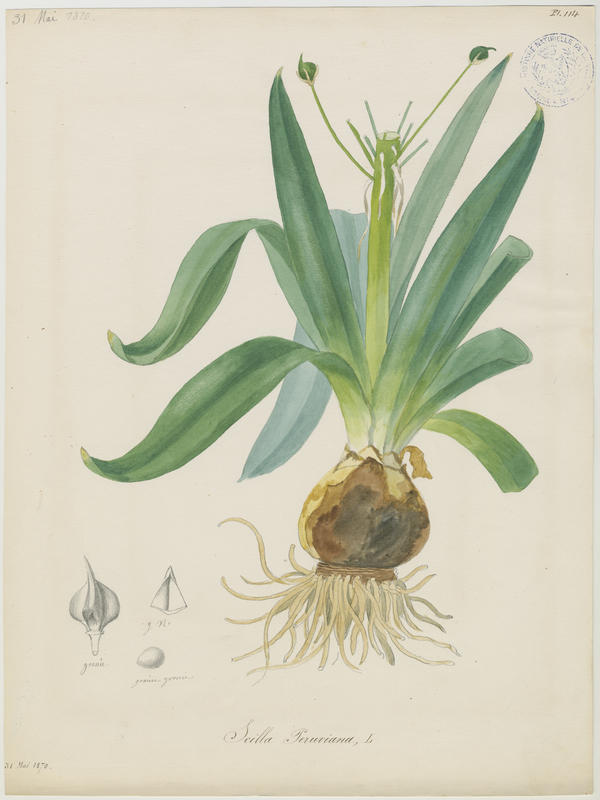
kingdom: Plantae
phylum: Tracheophyta
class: Liliopsida
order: Asparagales
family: Asparagaceae
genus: Scilla
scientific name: Scilla peruviana
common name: Portuguese squill
